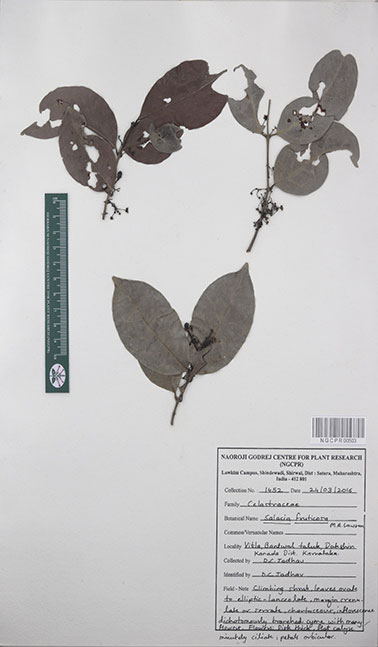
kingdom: Plantae
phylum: Tracheophyta
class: Magnoliopsida
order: Celastrales
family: Celastraceae
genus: Salacia
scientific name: Salacia fruticosa
